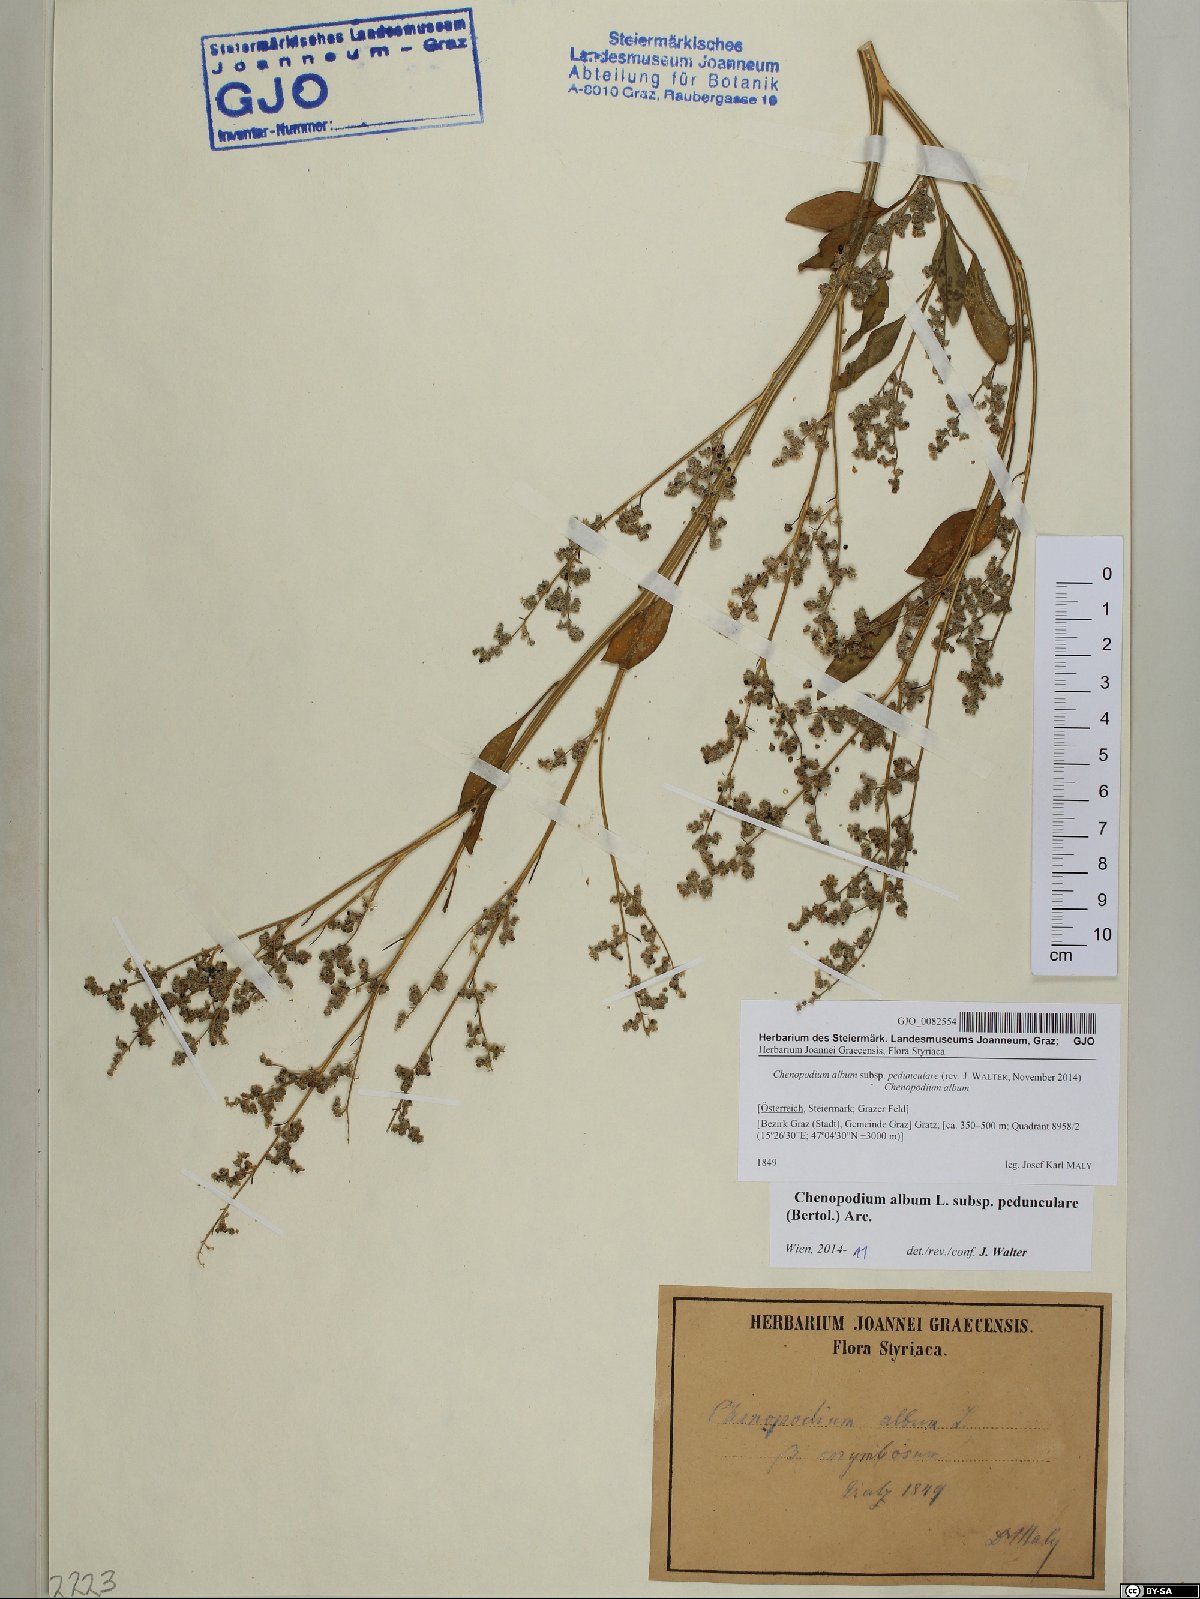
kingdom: Plantae
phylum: Tracheophyta
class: Magnoliopsida
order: Caryophyllales
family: Amaranthaceae
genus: Chenopodium
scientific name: Chenopodium album
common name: Fat-hen
